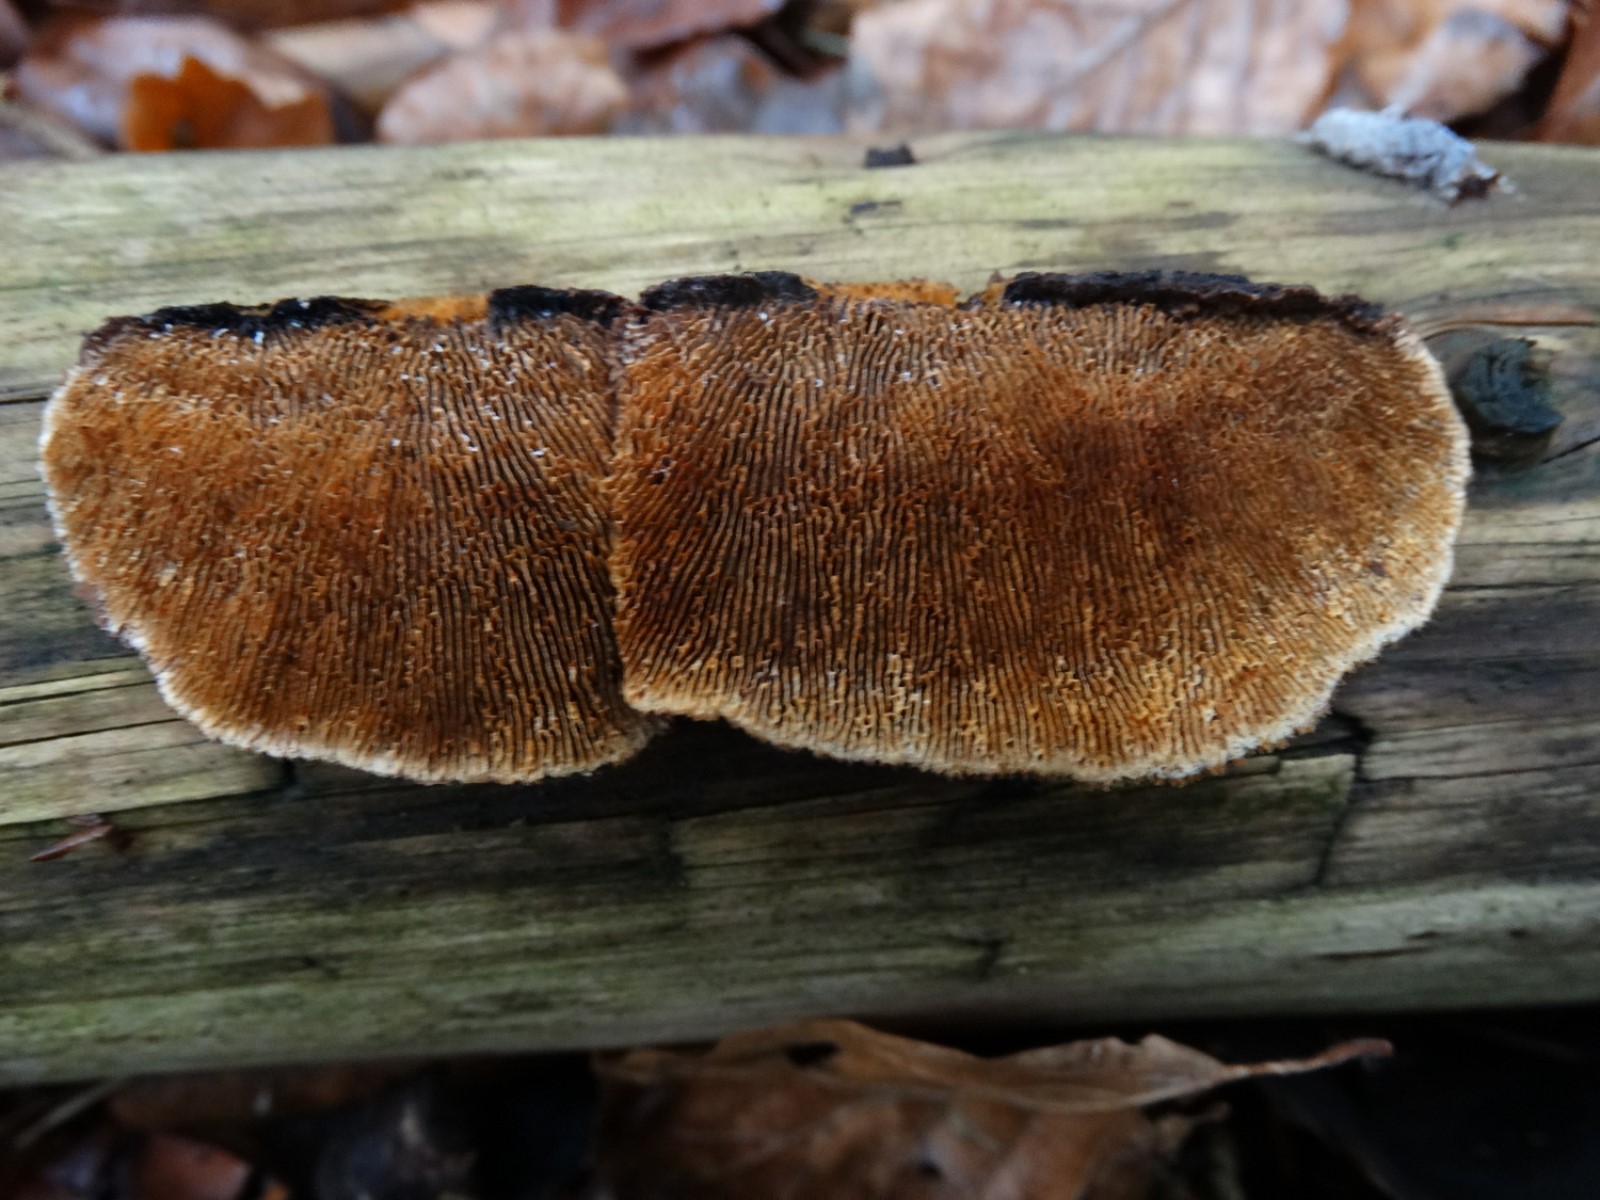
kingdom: Fungi
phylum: Basidiomycota
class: Agaricomycetes
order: Gloeophyllales
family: Gloeophyllaceae
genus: Gloeophyllum
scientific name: Gloeophyllum sepiarium
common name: fyrre-korkhat
